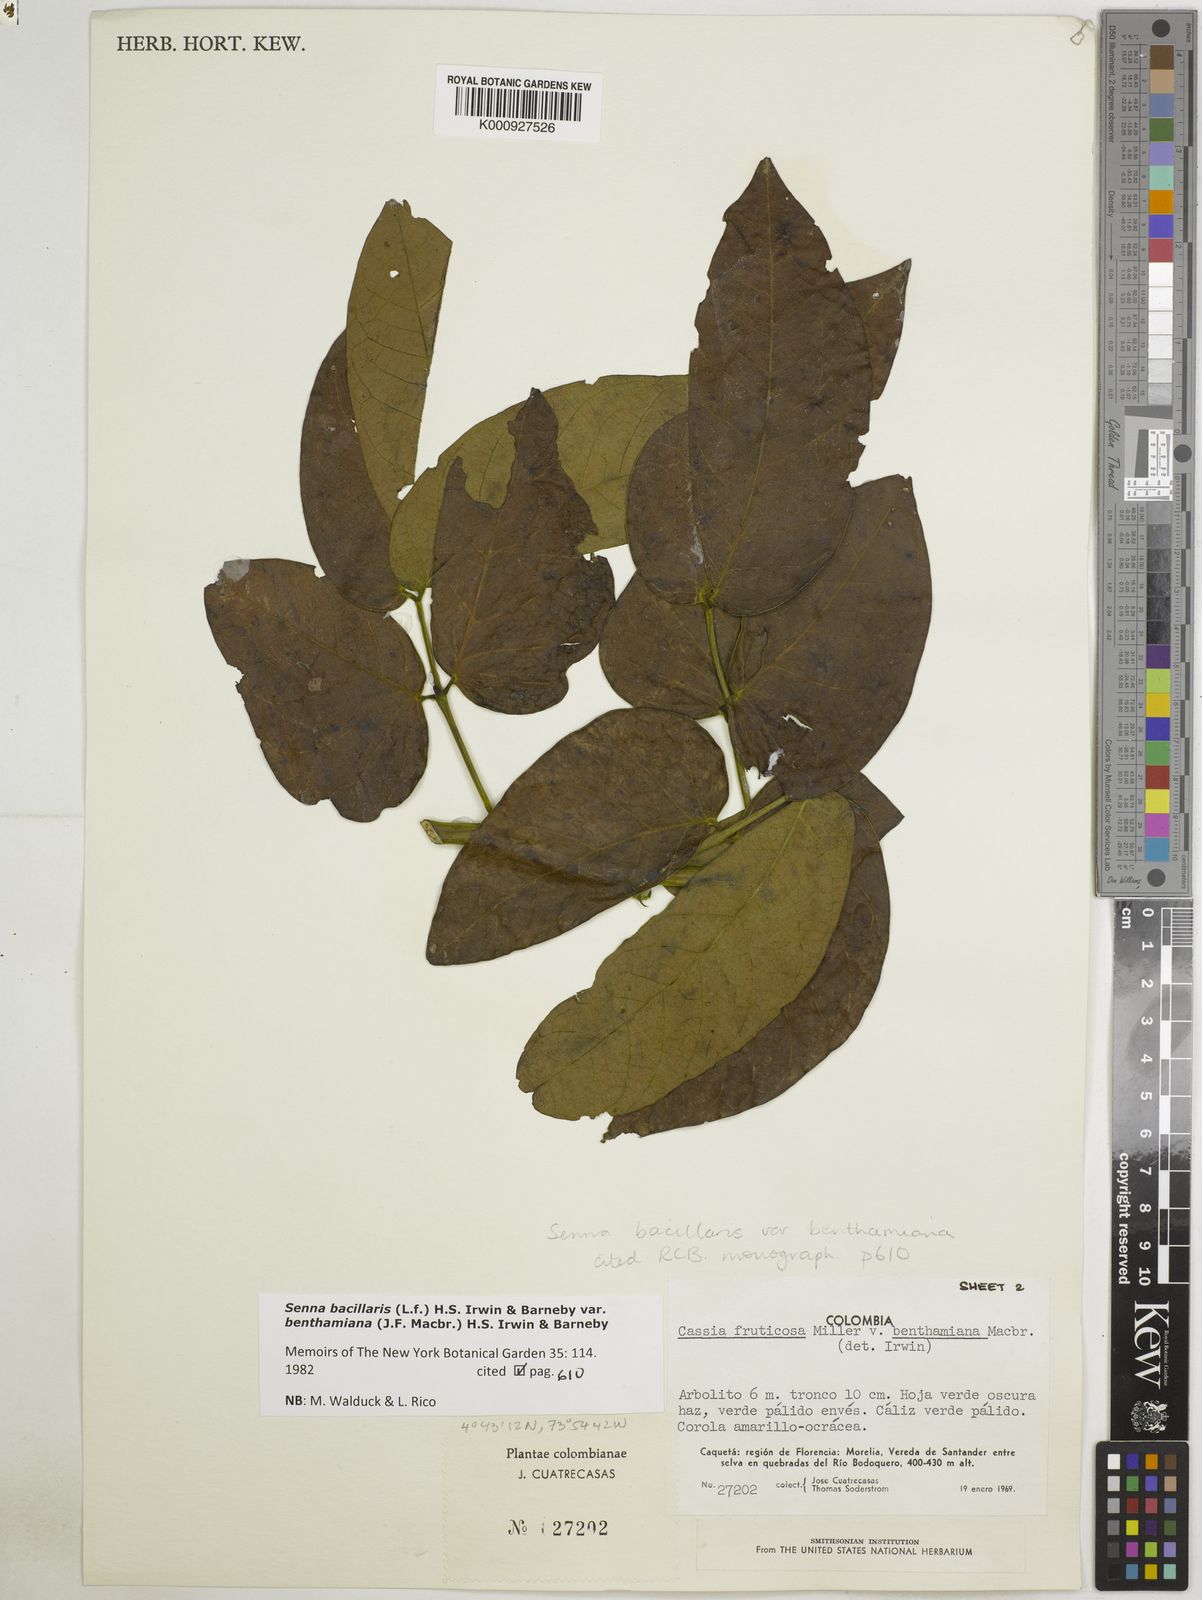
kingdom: Plantae
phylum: Tracheophyta
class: Magnoliopsida
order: Fabales
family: Fabaceae
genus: Senna
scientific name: Senna bacillaris
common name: West indian showertree
